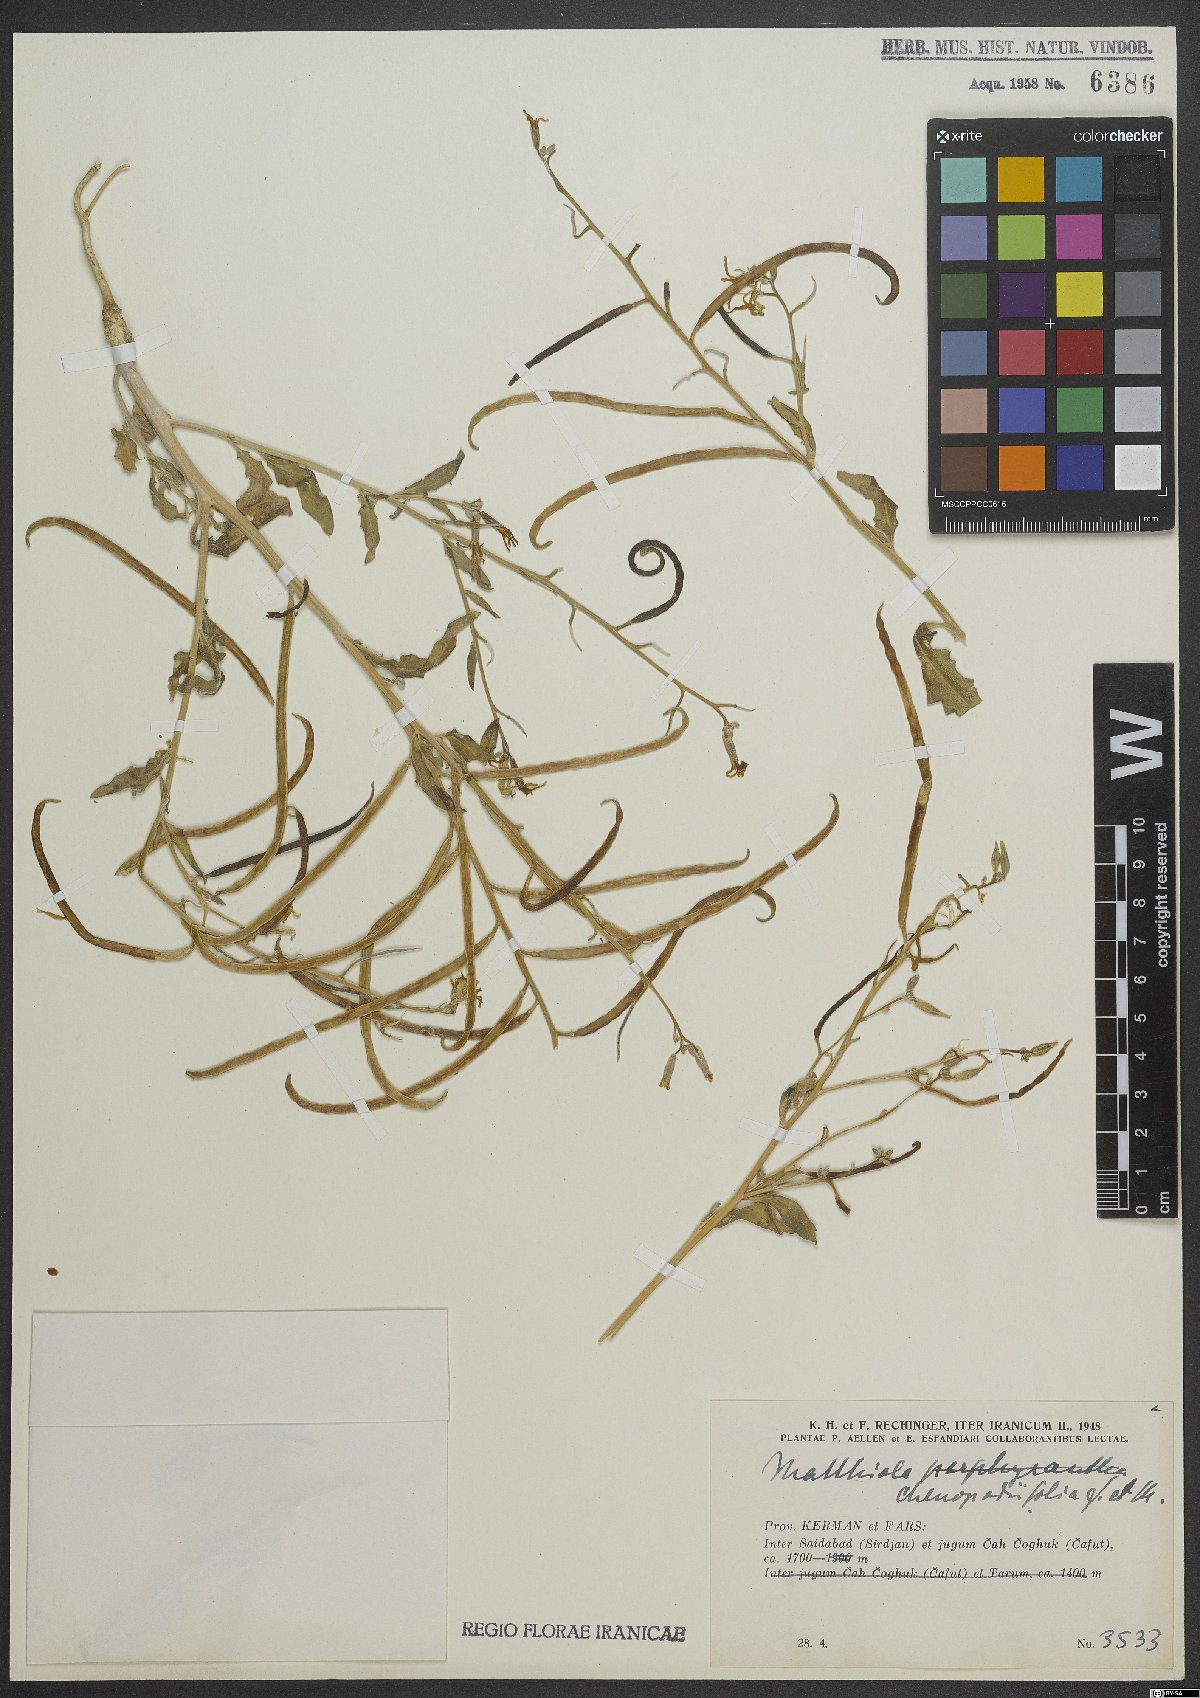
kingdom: Plantae
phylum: Tracheophyta
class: Magnoliopsida
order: Brassicales
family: Brassicaceae
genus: Matthiola
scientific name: Matthiola chenopodiifolia
